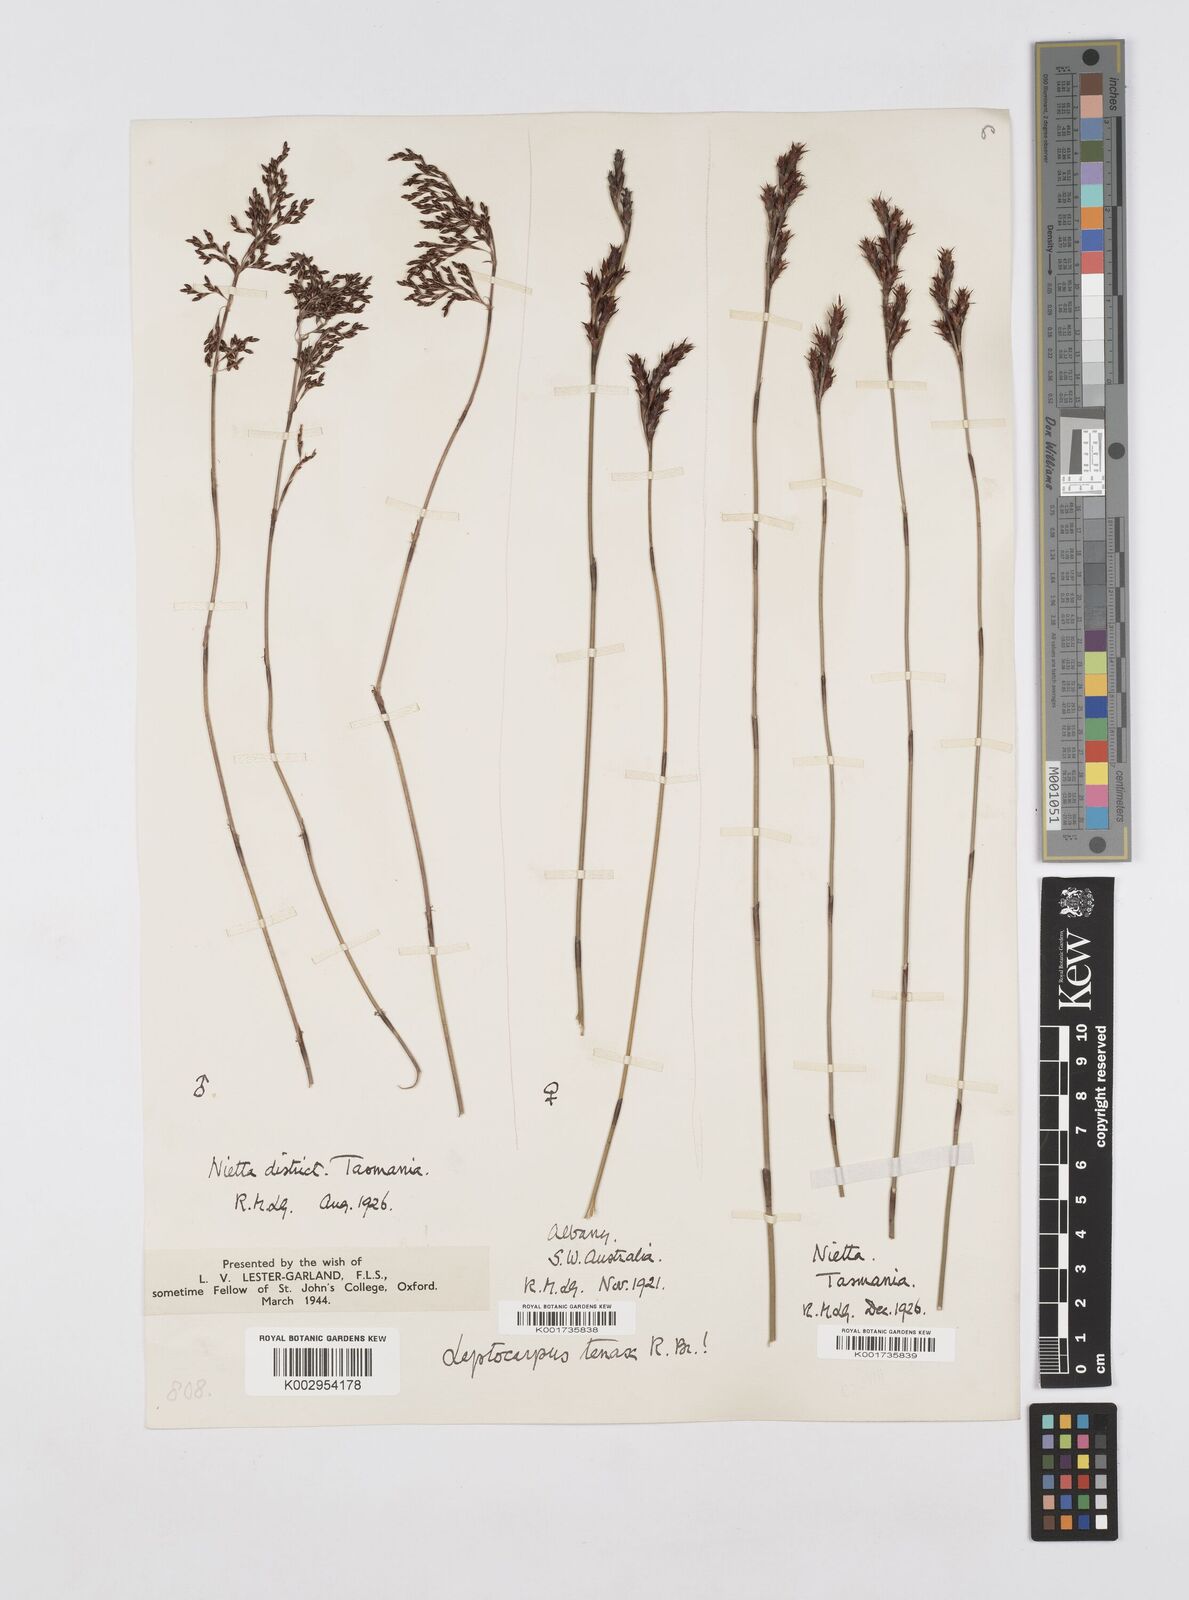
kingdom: Plantae
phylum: Tracheophyta
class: Liliopsida
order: Poales
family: Restionaceae
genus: Leptocarpus
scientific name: Leptocarpus tenax
